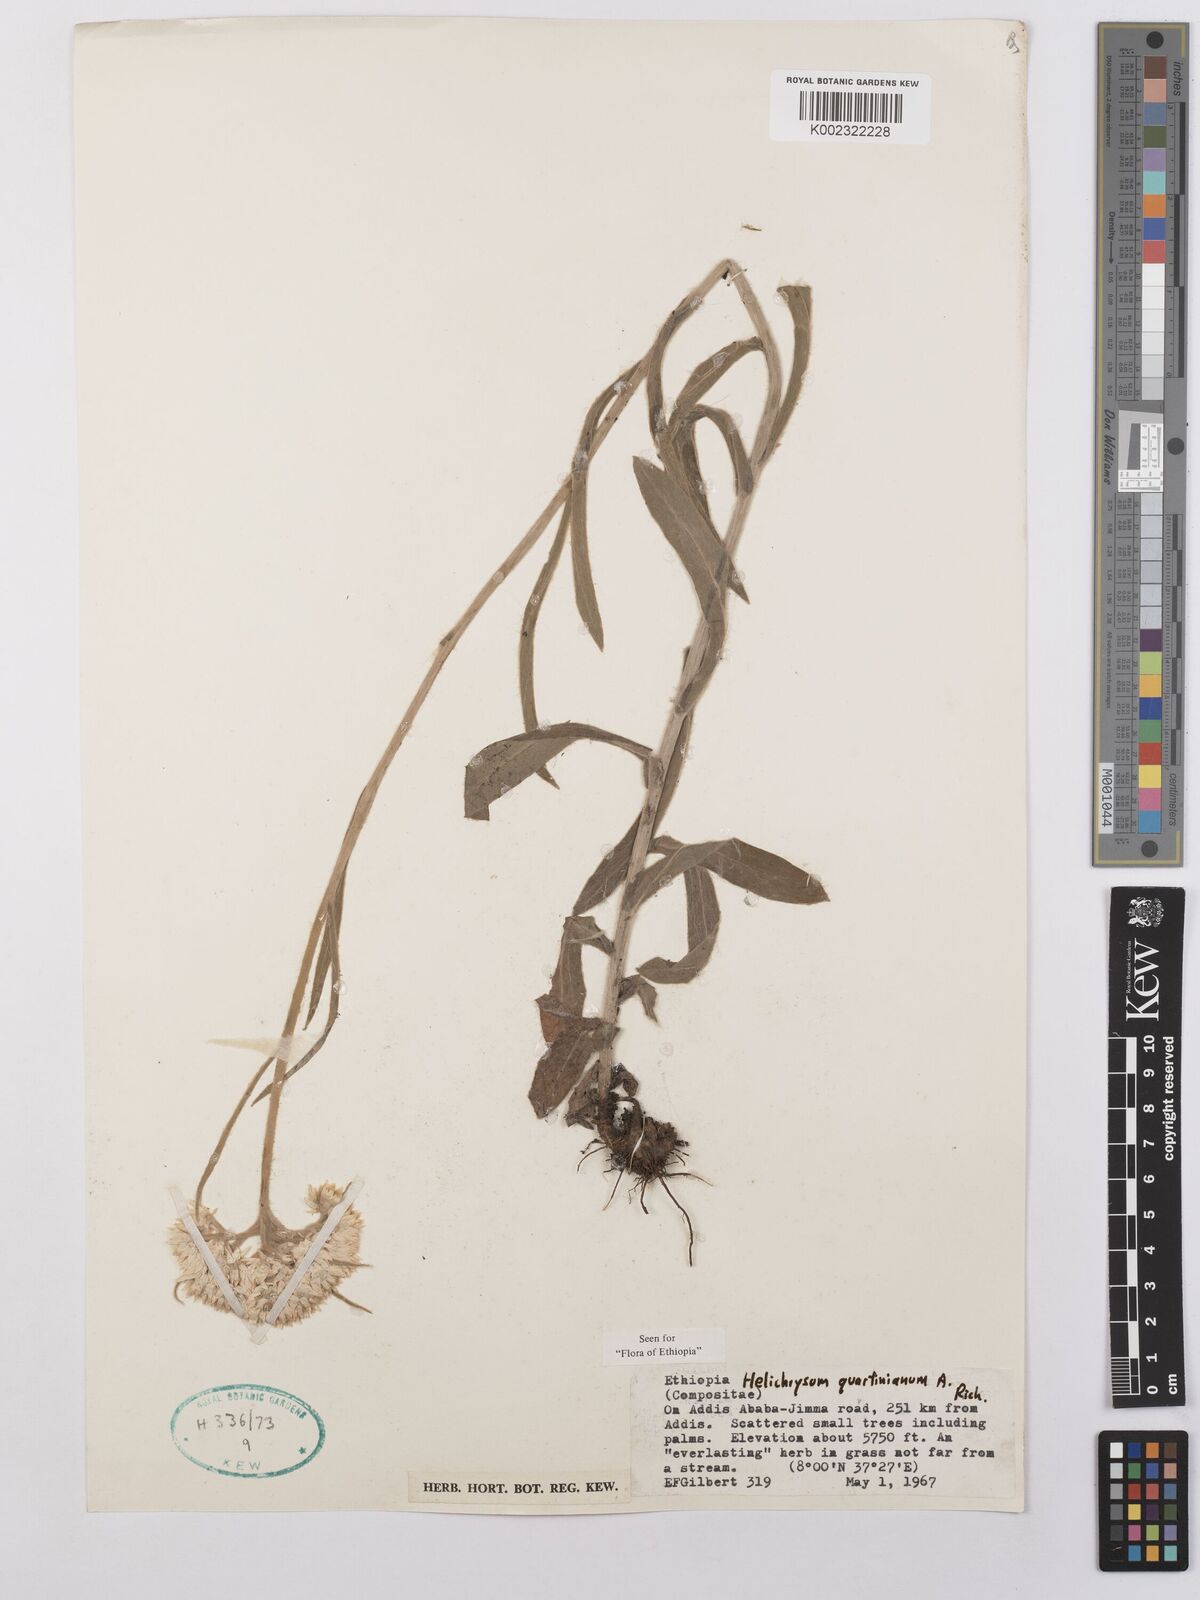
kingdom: Plantae
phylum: Tracheophyta
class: Magnoliopsida
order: Asterales
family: Asteraceae
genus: Helichrysum
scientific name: Helichrysum quartinianum
